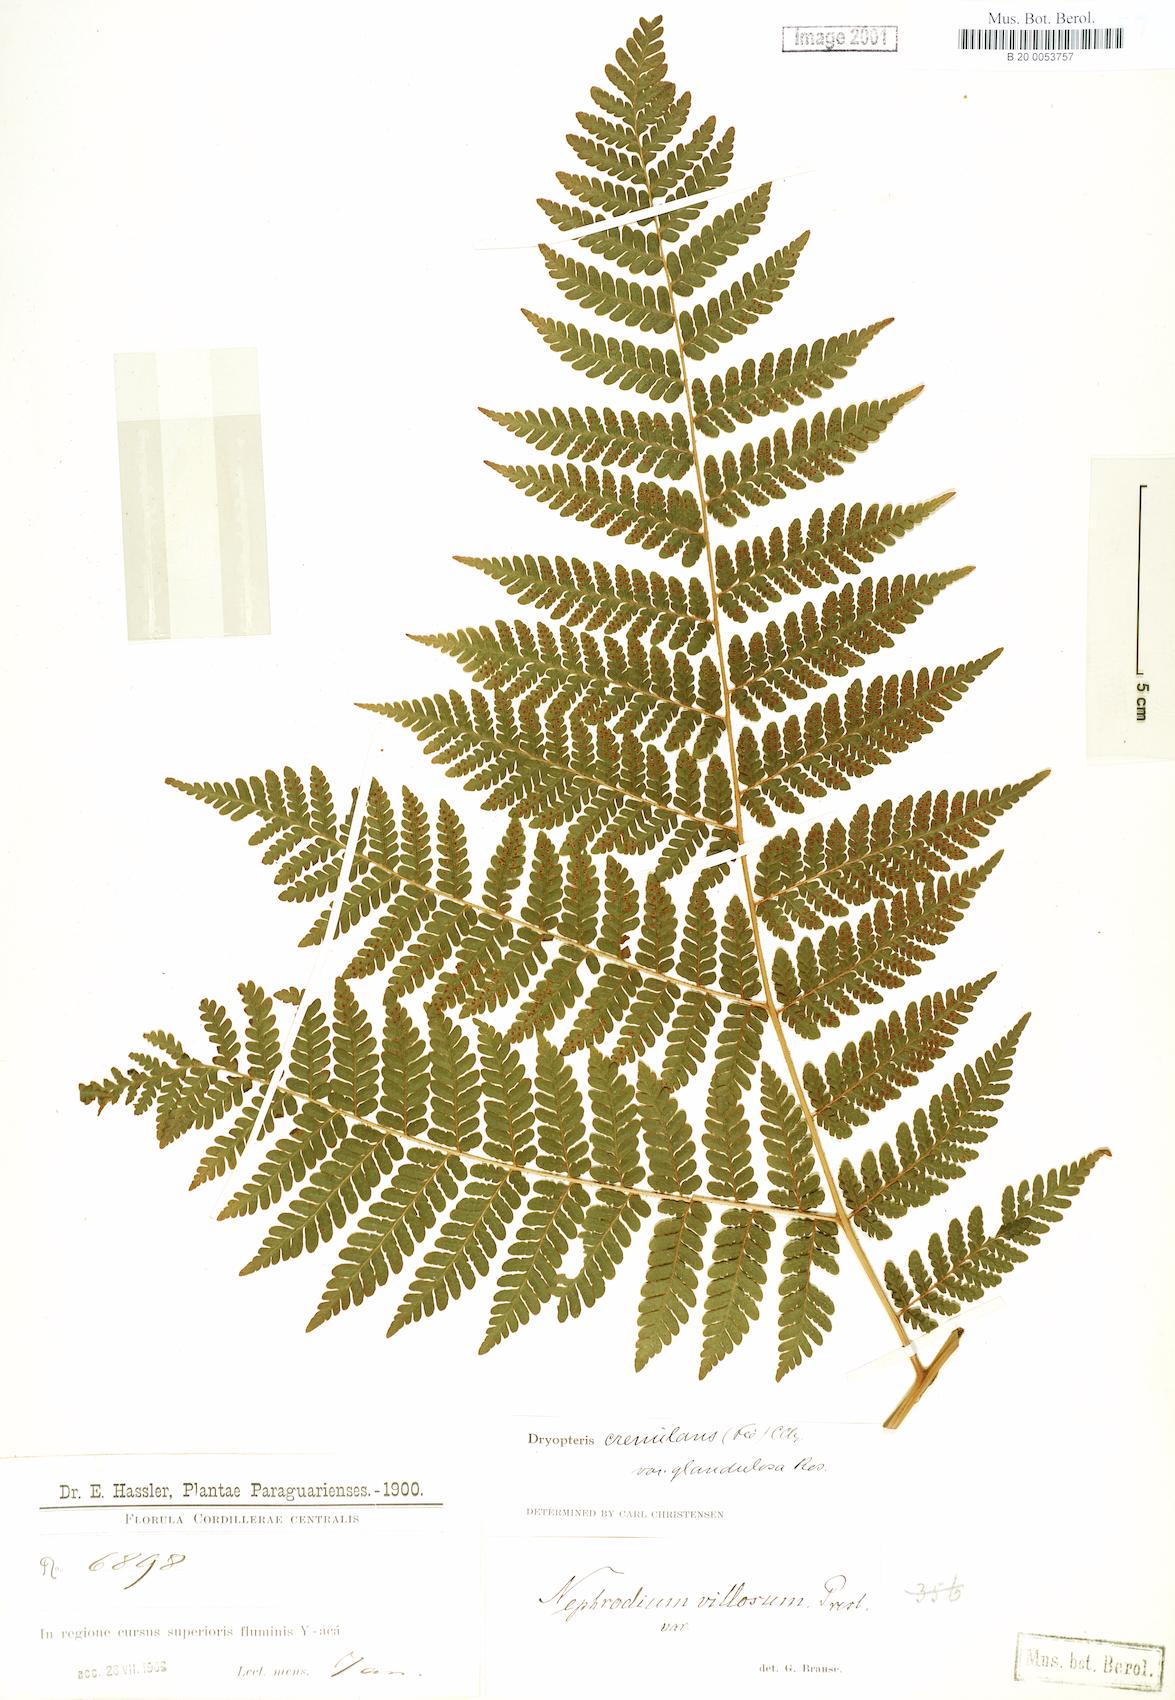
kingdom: Plantae
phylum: Tracheophyta
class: Polypodiopsida
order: Polypodiales
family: Dryopteridaceae
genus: Megalastrum
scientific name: Megalastrum crenulans
